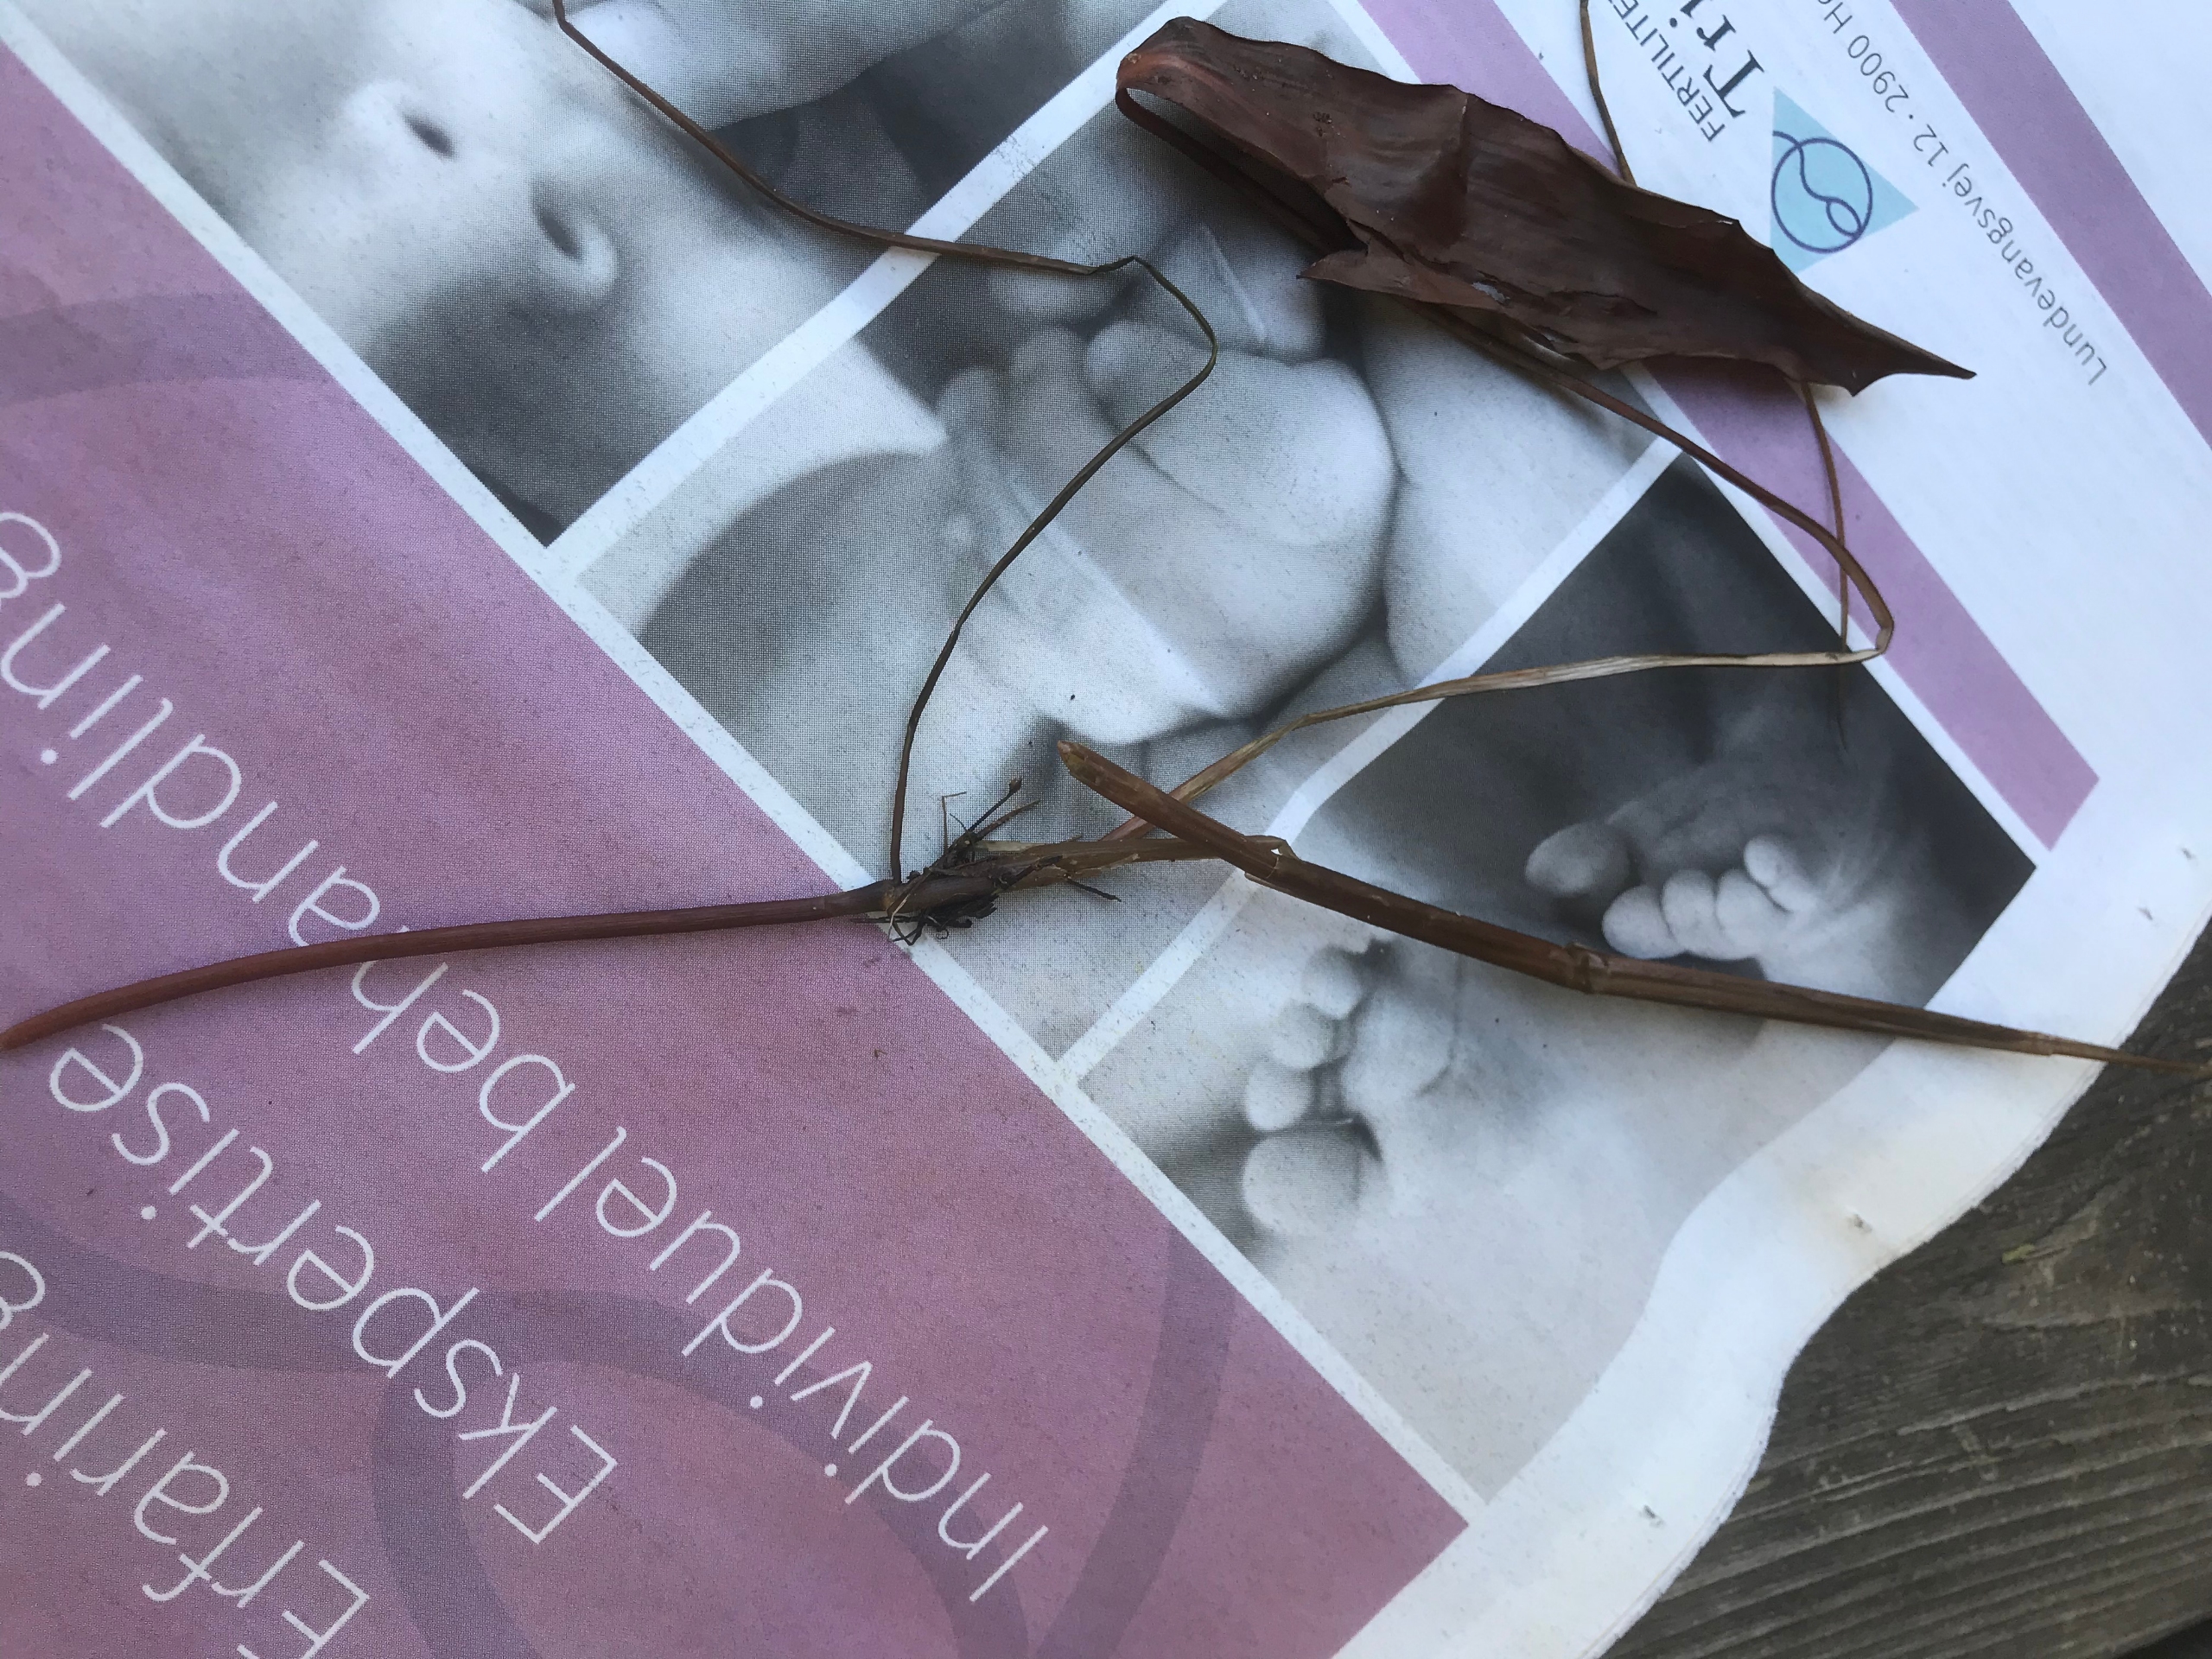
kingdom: Plantae
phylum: Tracheophyta
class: Liliopsida
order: Alismatales
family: Potamogetonaceae
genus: Potamogeton
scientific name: Potamogeton
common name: Vandaks (Potamogeton-slægten)
